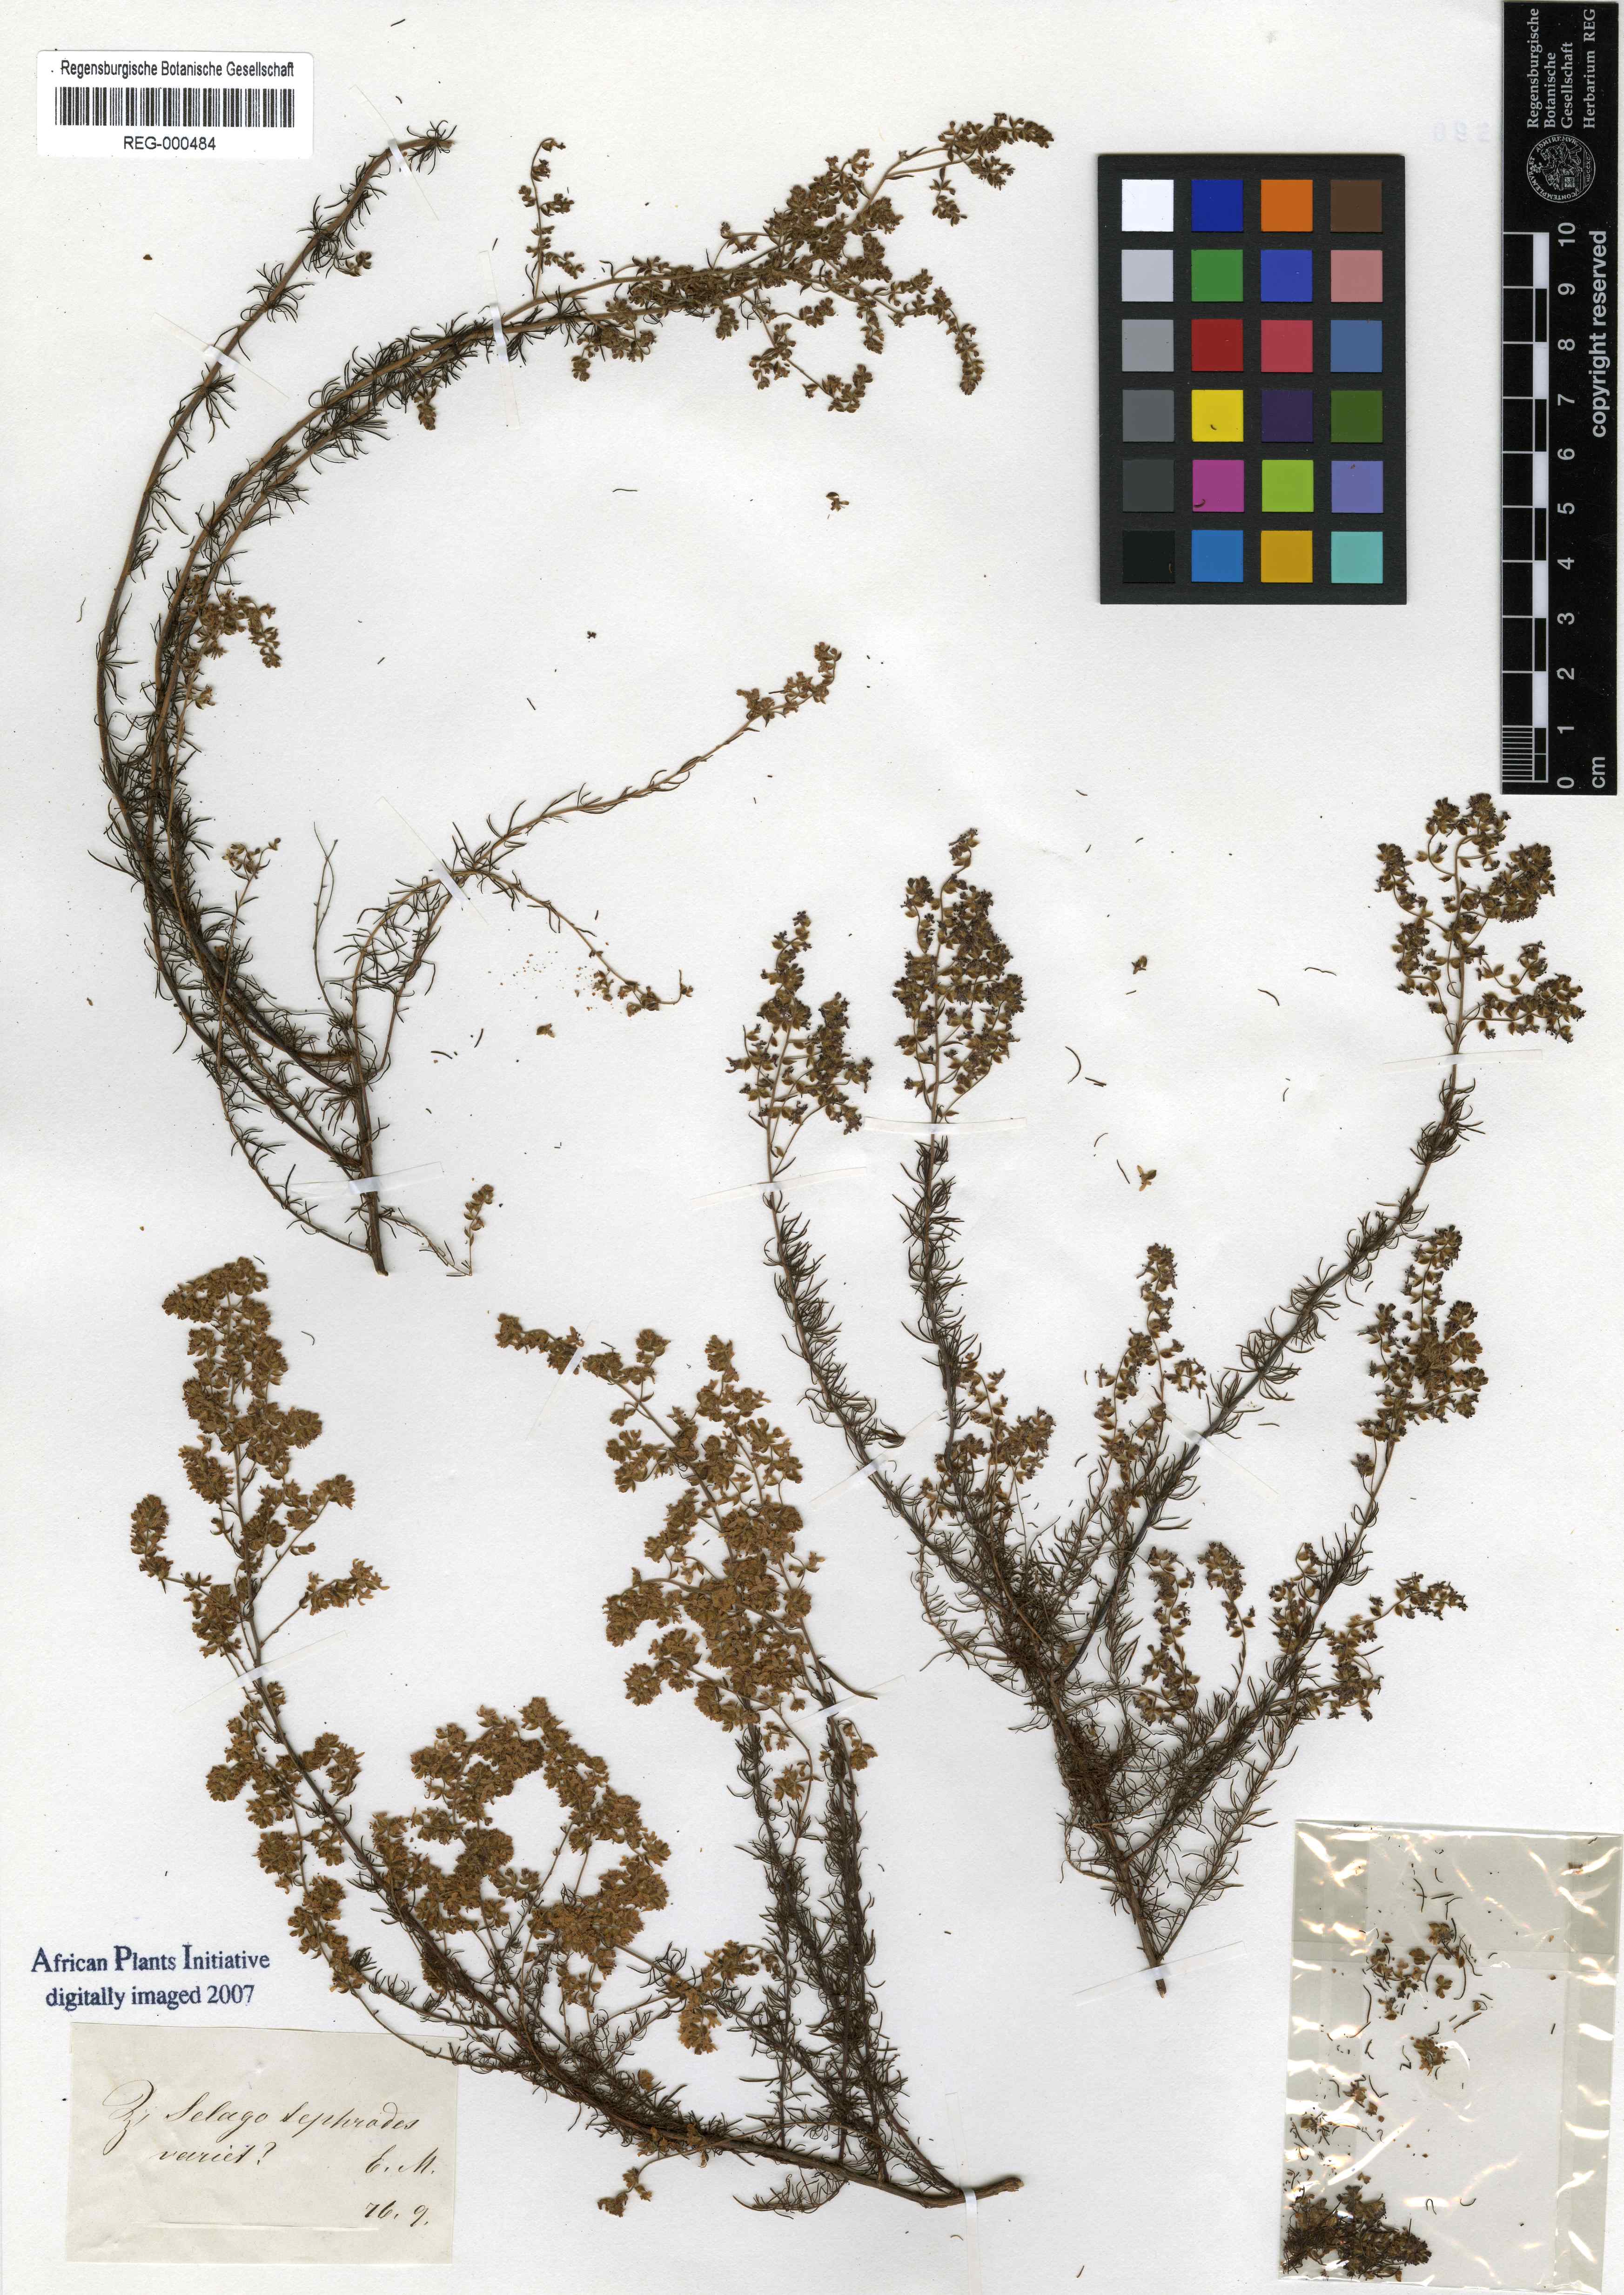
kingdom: Plantae
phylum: Tracheophyta
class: Magnoliopsida
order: Lamiales
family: Scrophulariaceae
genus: Globulariopsis
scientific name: Globulariopsis tephrodes
